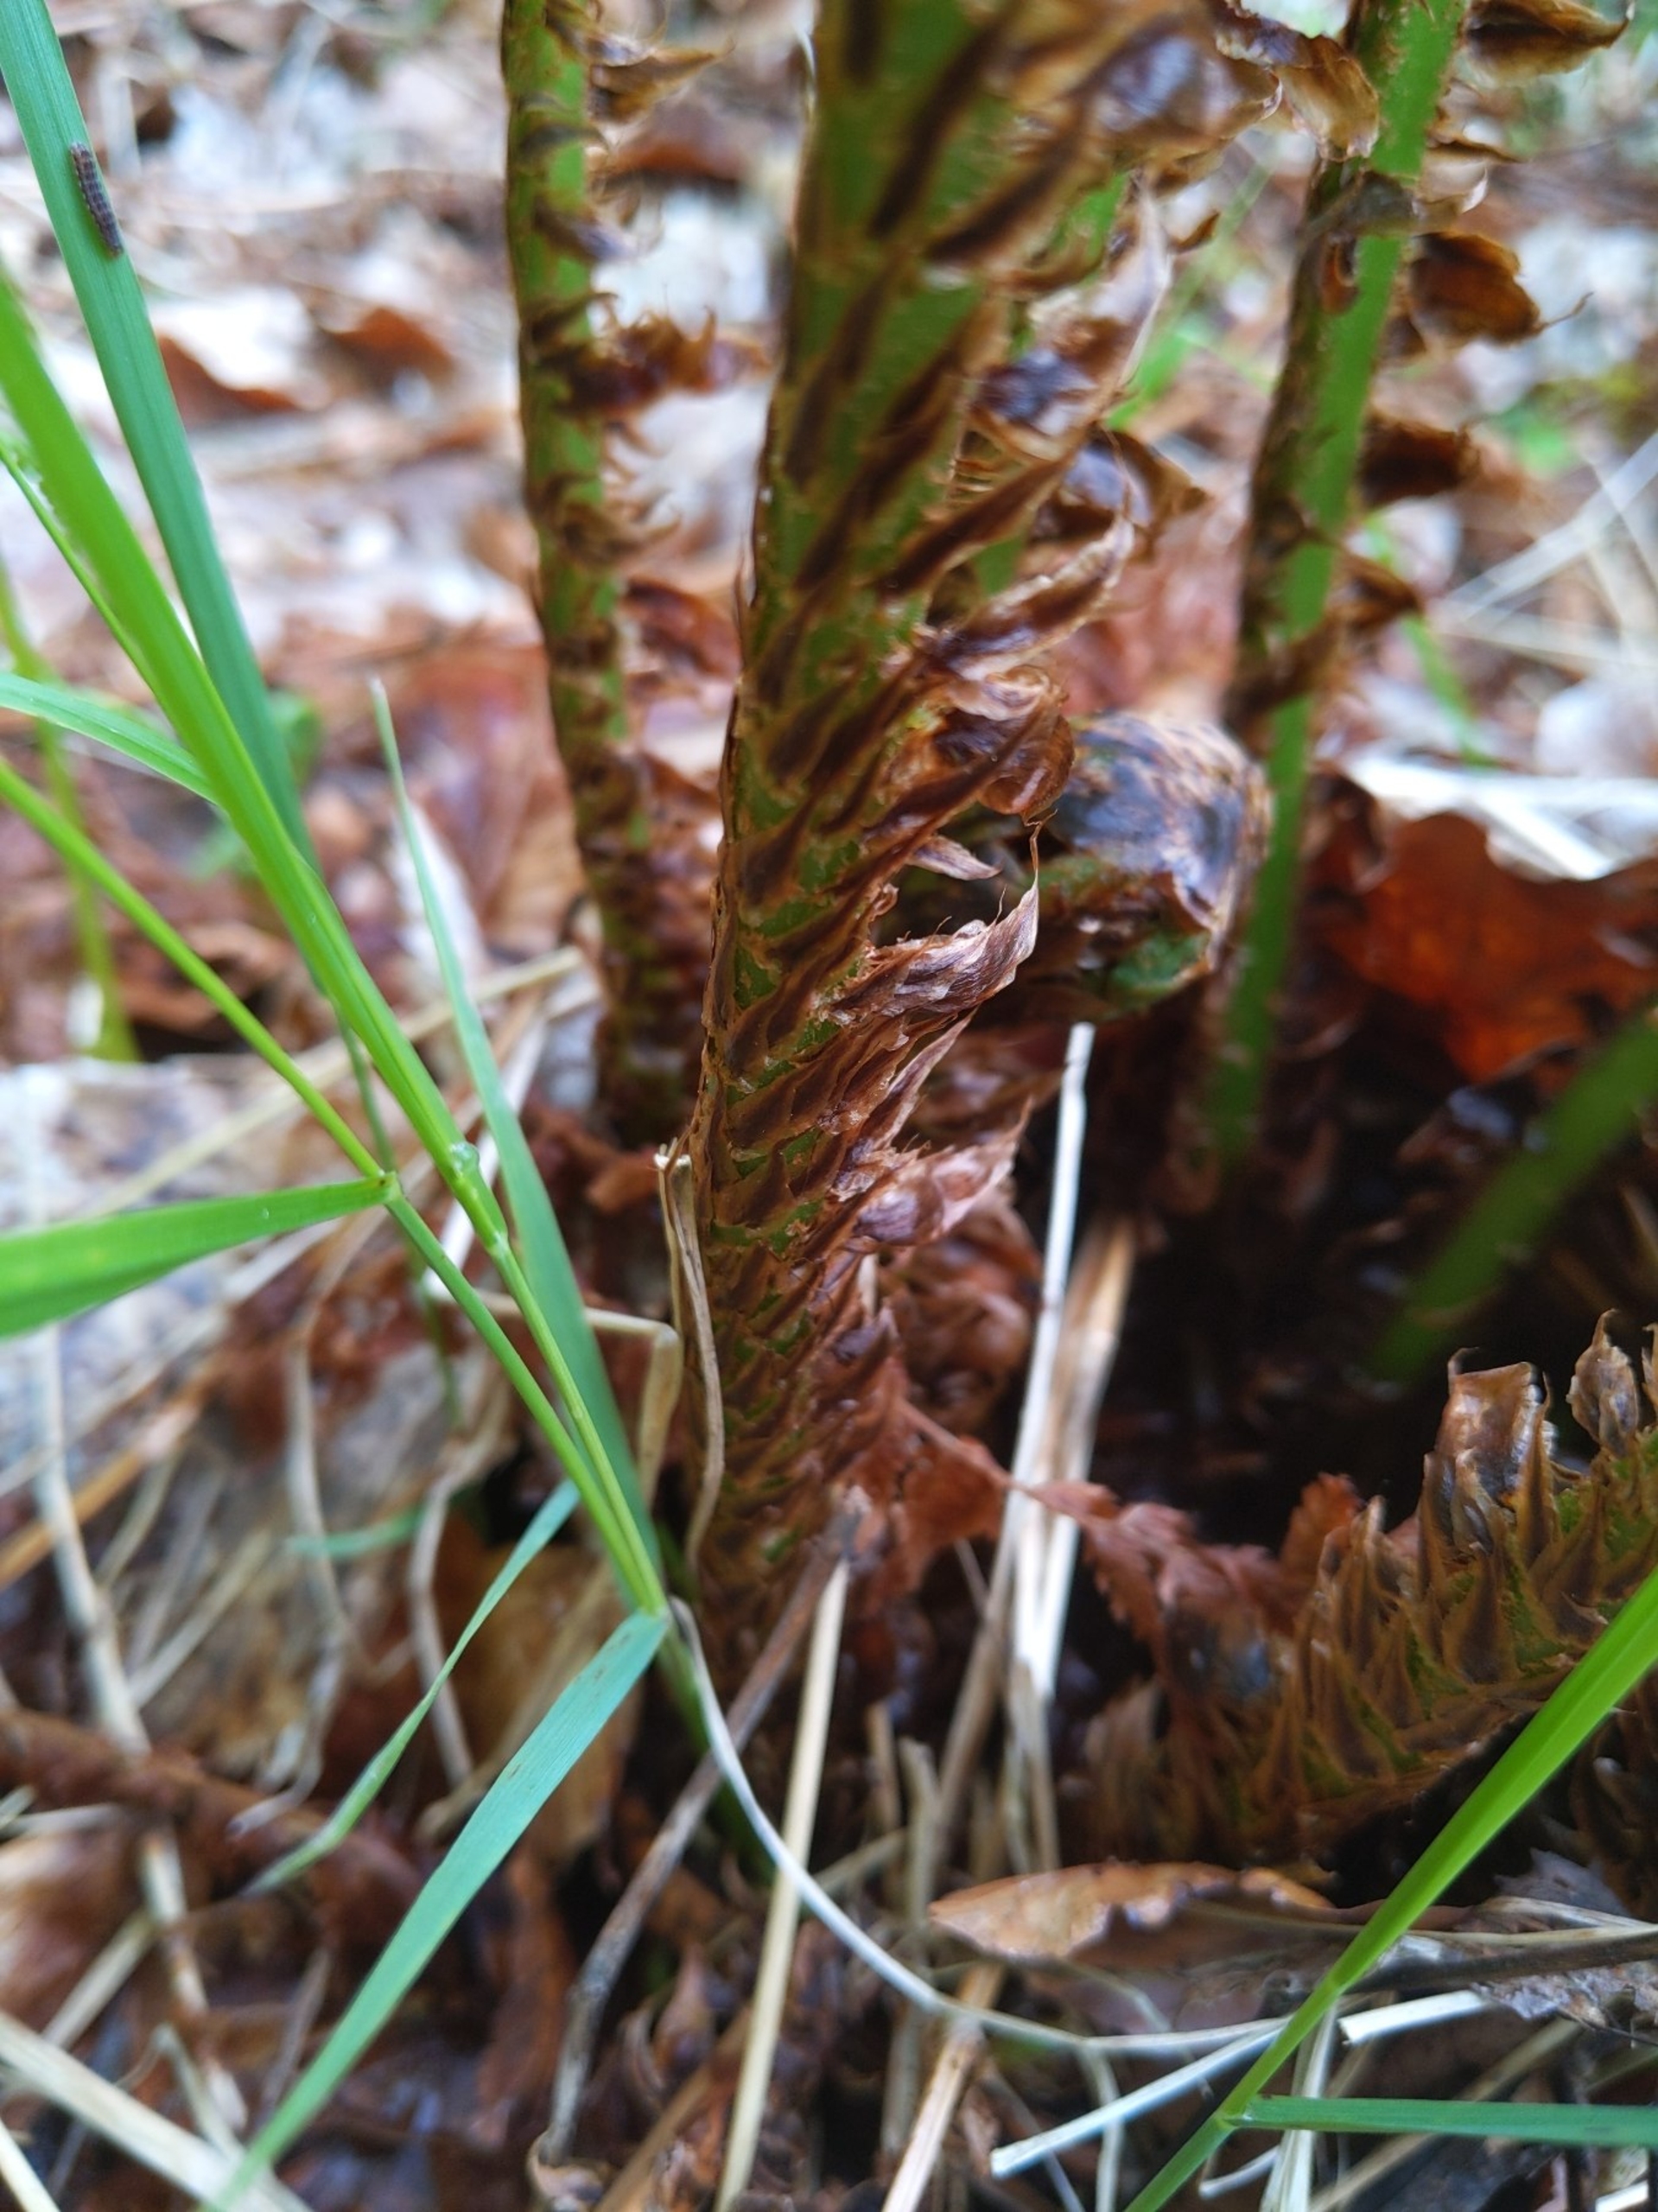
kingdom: Plantae
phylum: Tracheophyta
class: Polypodiopsida
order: Polypodiales
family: Dryopteridaceae
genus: Dryopteris
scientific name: Dryopteris dilatata
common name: Bredbladet mangeløv
